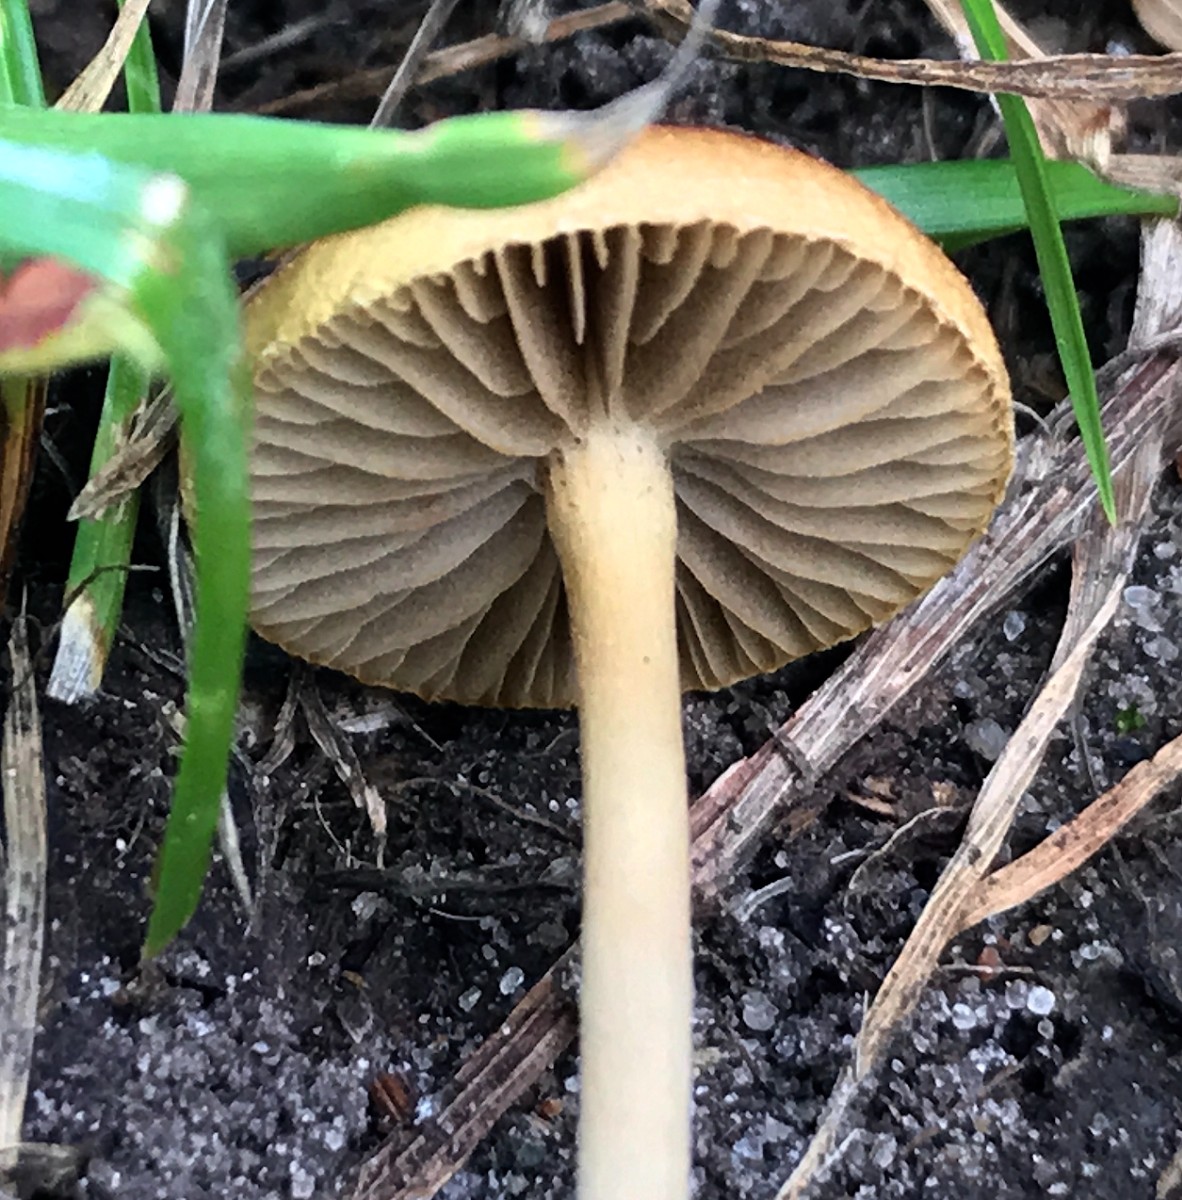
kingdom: Fungi
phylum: Basidiomycota
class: Agaricomycetes
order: Agaricales
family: Strophariaceae
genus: Agrocybe
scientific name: Agrocybe pediades
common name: almindelig agerhat
